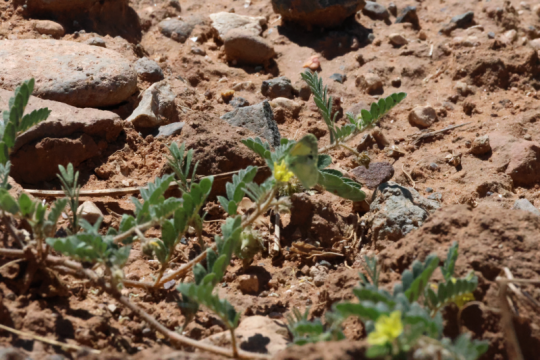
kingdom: Animalia
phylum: Arthropoda
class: Insecta
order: Lepidoptera
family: Pieridae
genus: Nathalis
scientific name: Nathalis iole
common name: Dainty Sulphur
